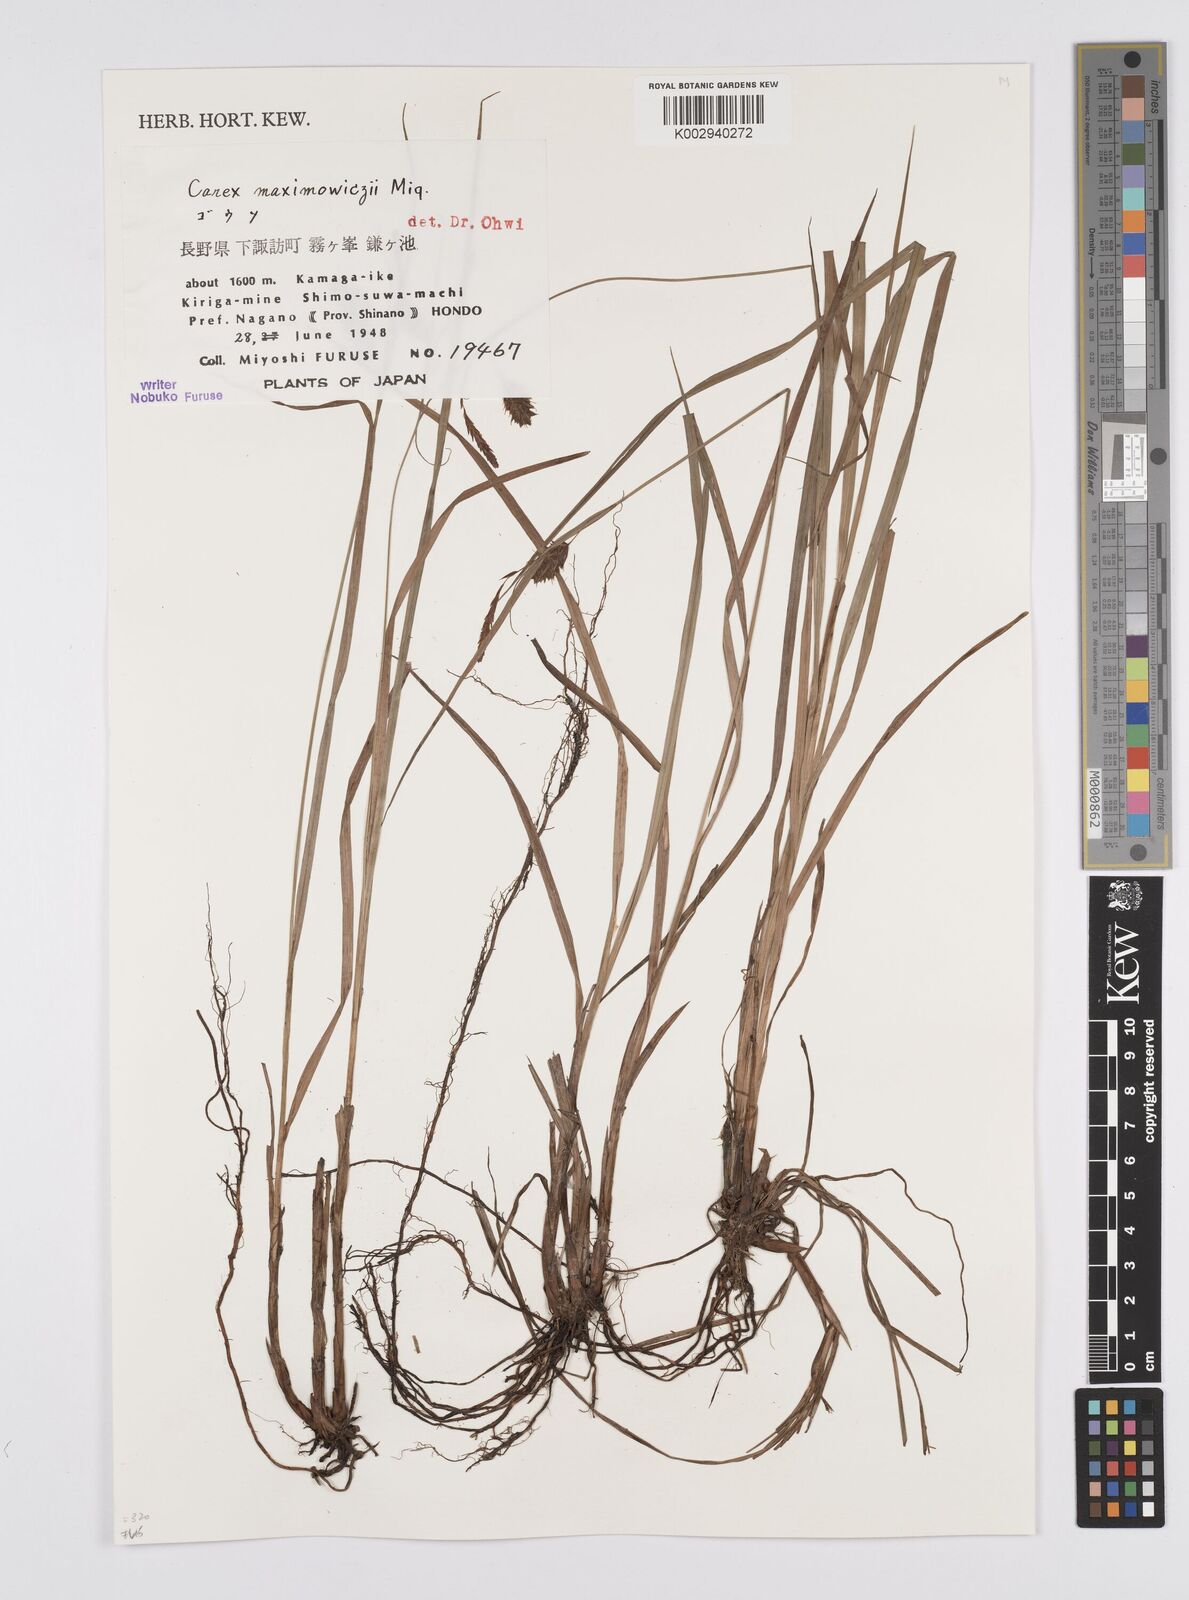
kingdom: Plantae
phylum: Tracheophyta
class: Liliopsida
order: Poales
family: Cyperaceae
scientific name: Cyperaceae
